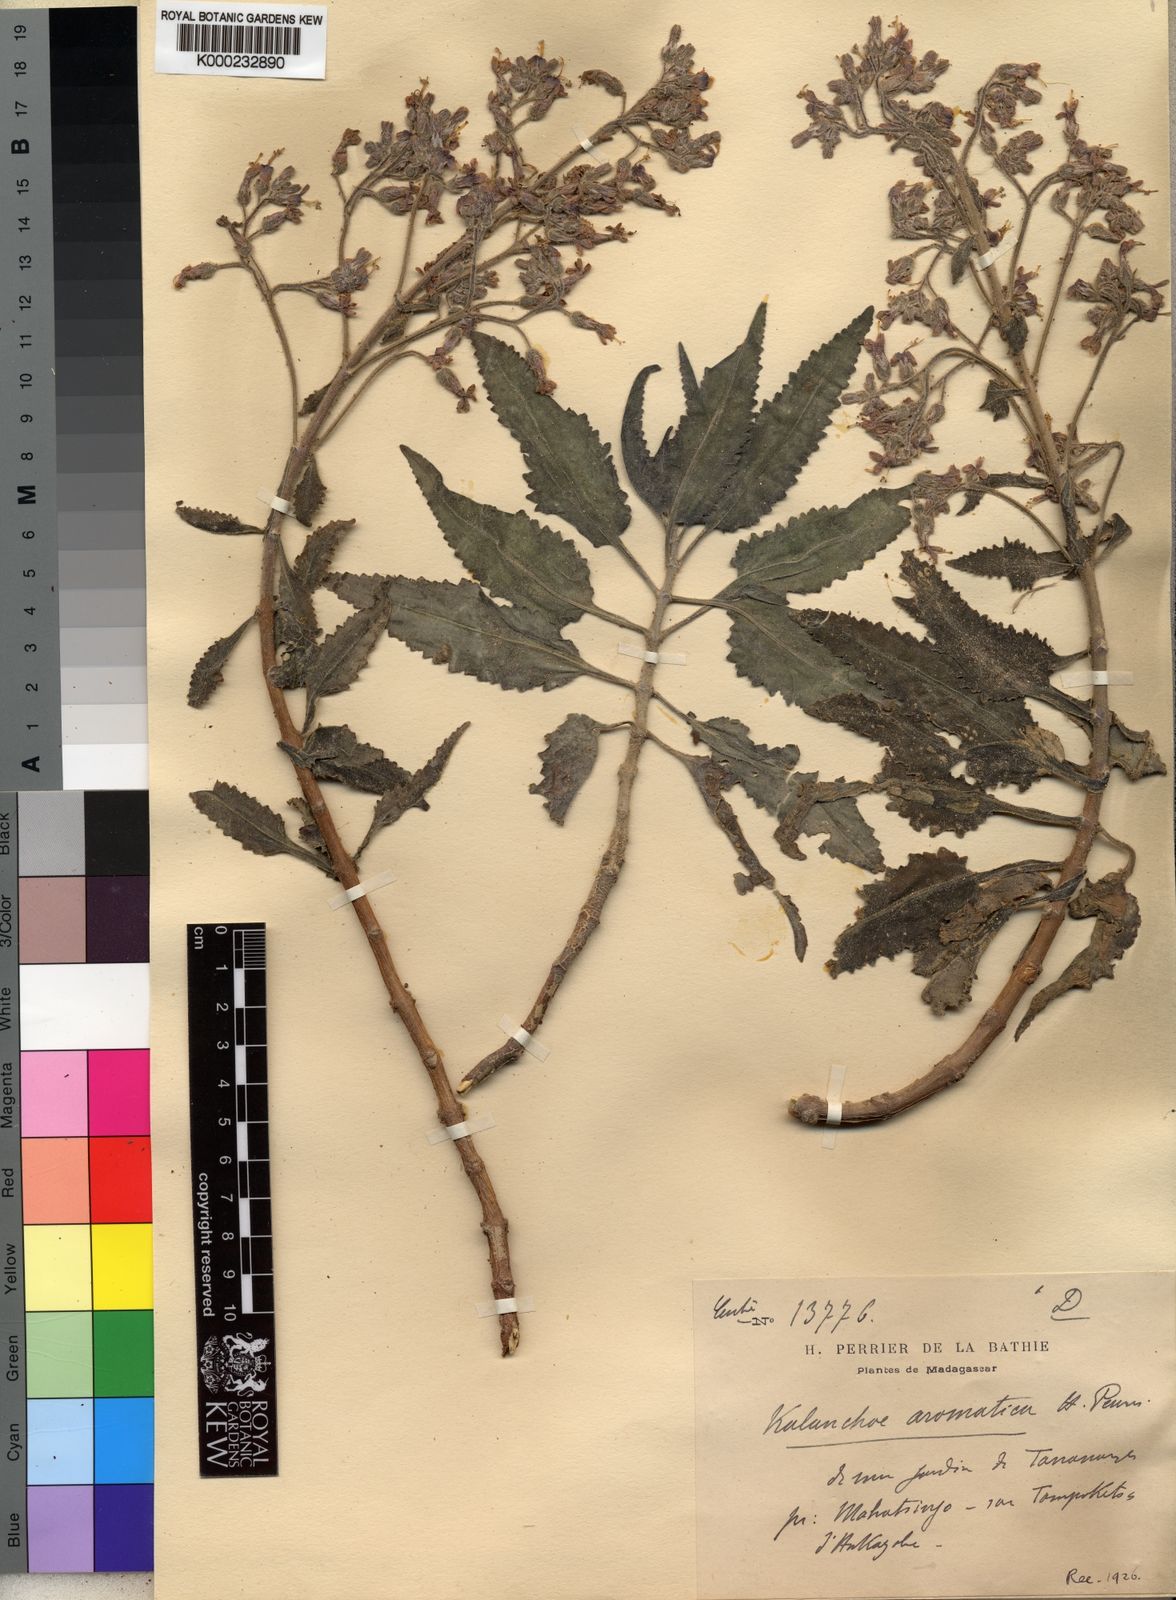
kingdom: Plantae
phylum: Tracheophyta
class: Magnoliopsida
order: Saxifragales
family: Crassulaceae
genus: Kalanchoe
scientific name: Kalanchoe aromatica
